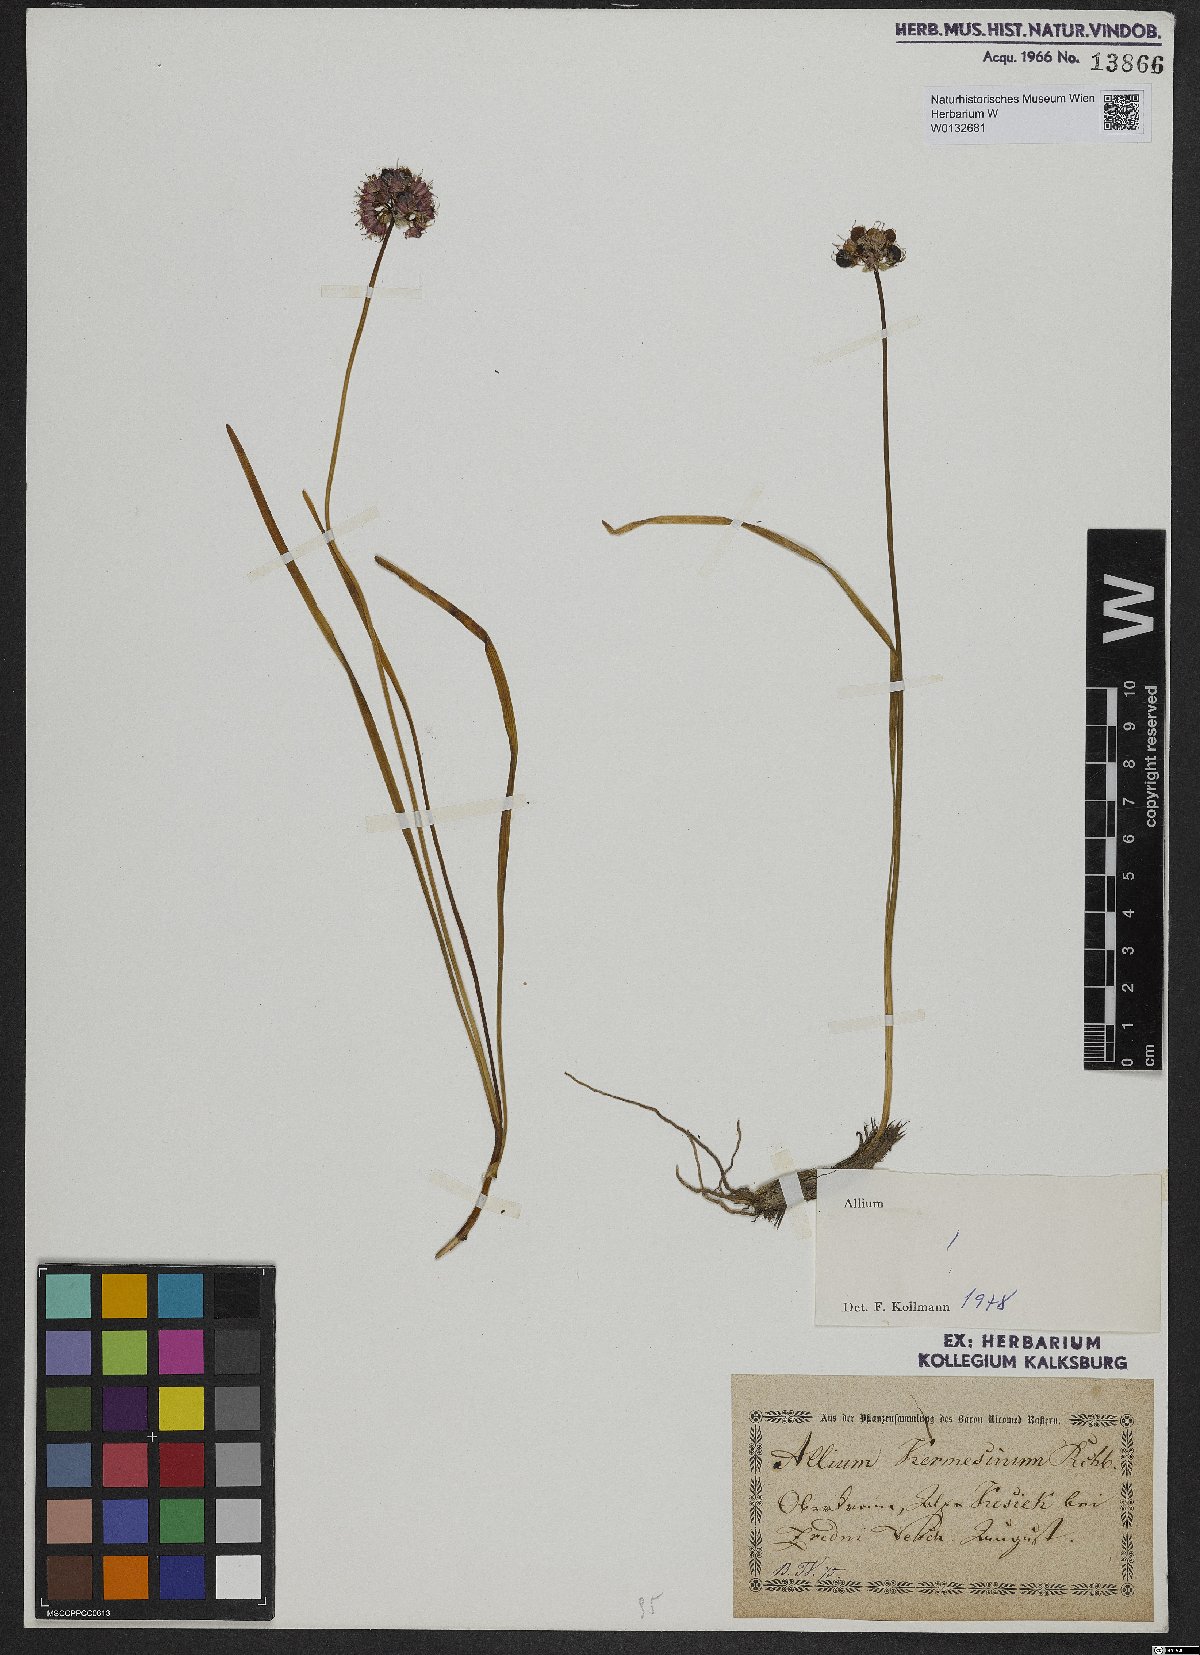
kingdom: Plantae
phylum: Tracheophyta
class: Liliopsida
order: Asparagales
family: Amaryllidaceae
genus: Allium
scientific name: Allium kermesinum
